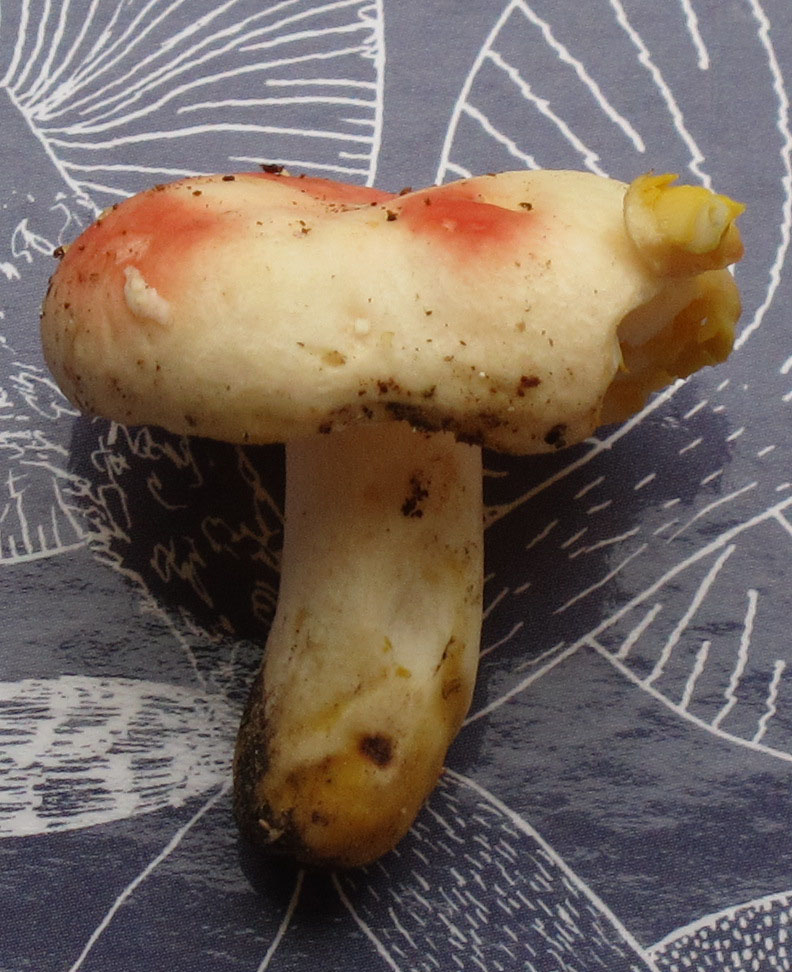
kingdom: Fungi
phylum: Basidiomycota
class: Agaricomycetes
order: Russulales
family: Russulaceae
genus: Russula
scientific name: Russula luteotacta
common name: gulplettet gift-skørhat
